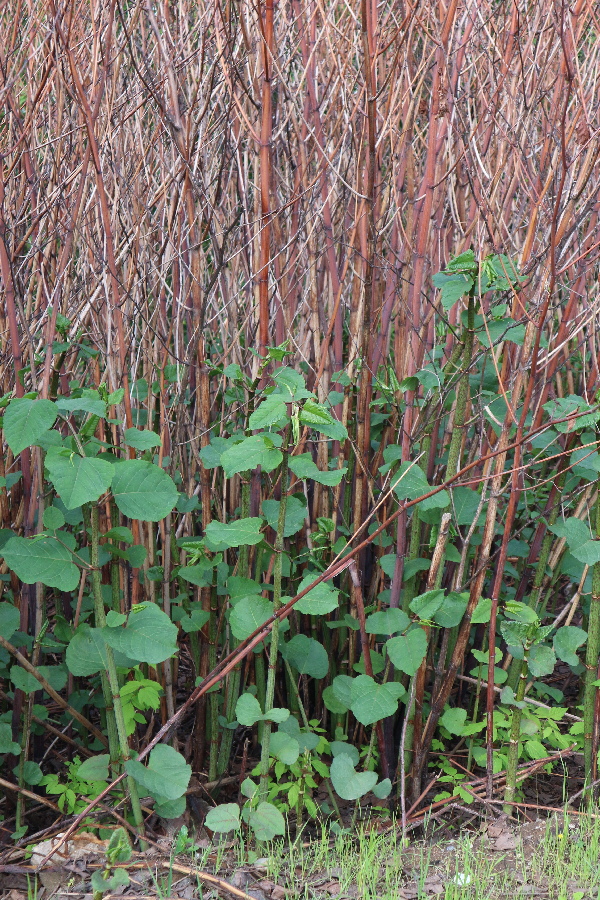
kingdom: Plantae
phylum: Tracheophyta
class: Magnoliopsida
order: Caryophyllales
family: Polygonaceae
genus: Reynoutria
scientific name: Reynoutria sachalinensis
